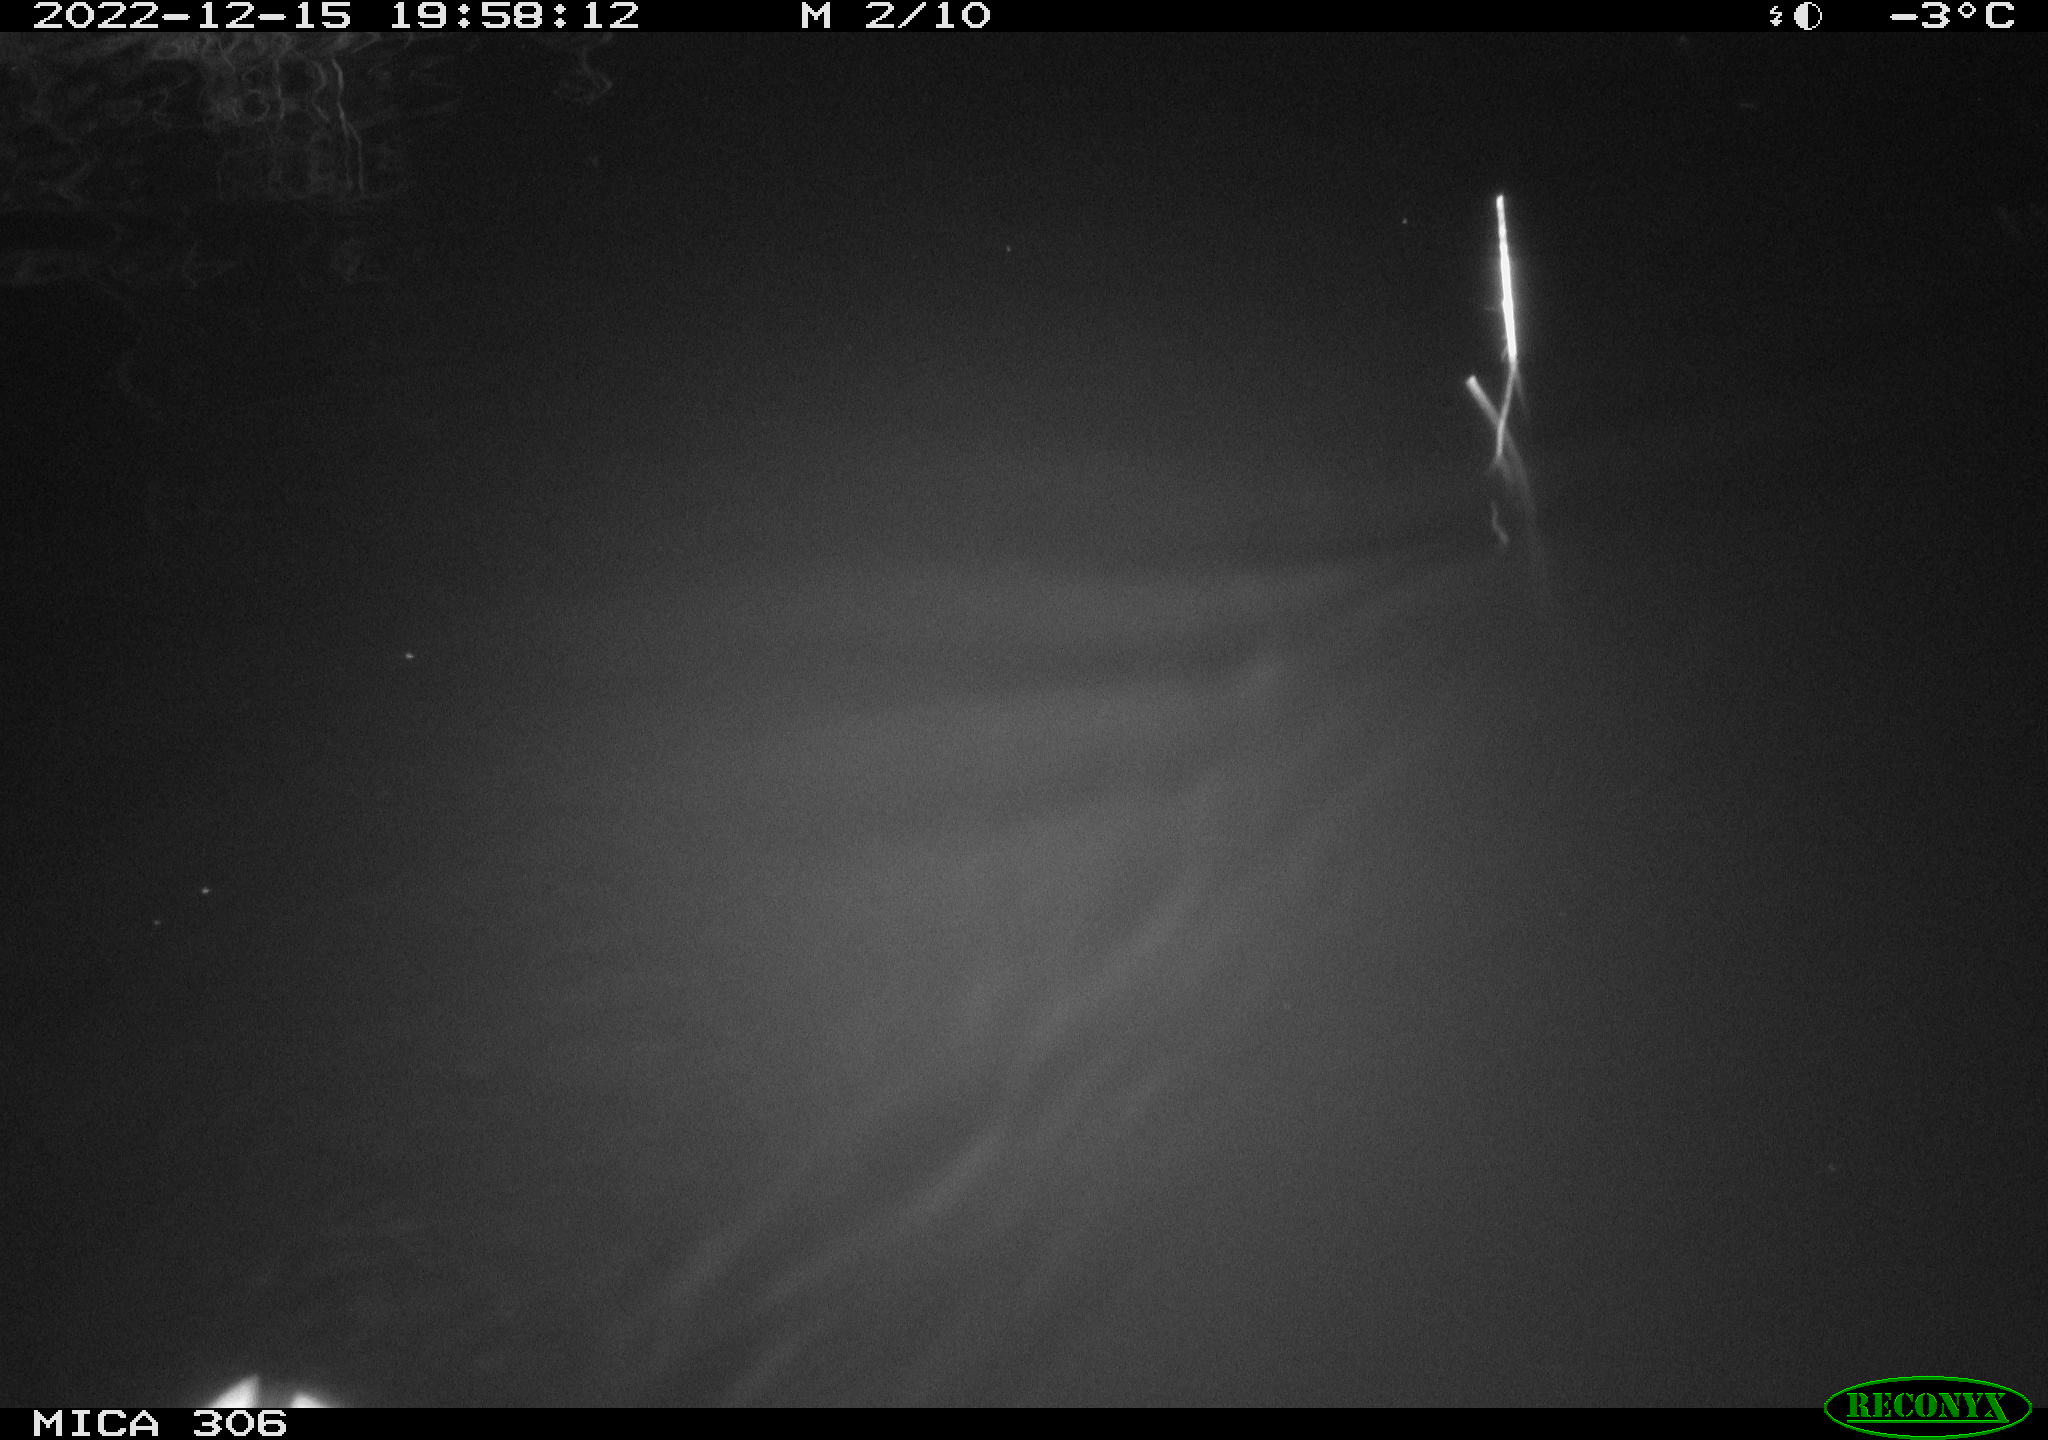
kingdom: Animalia
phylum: Chordata
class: Aves
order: Anseriformes
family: Anatidae
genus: Anas
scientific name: Anas
